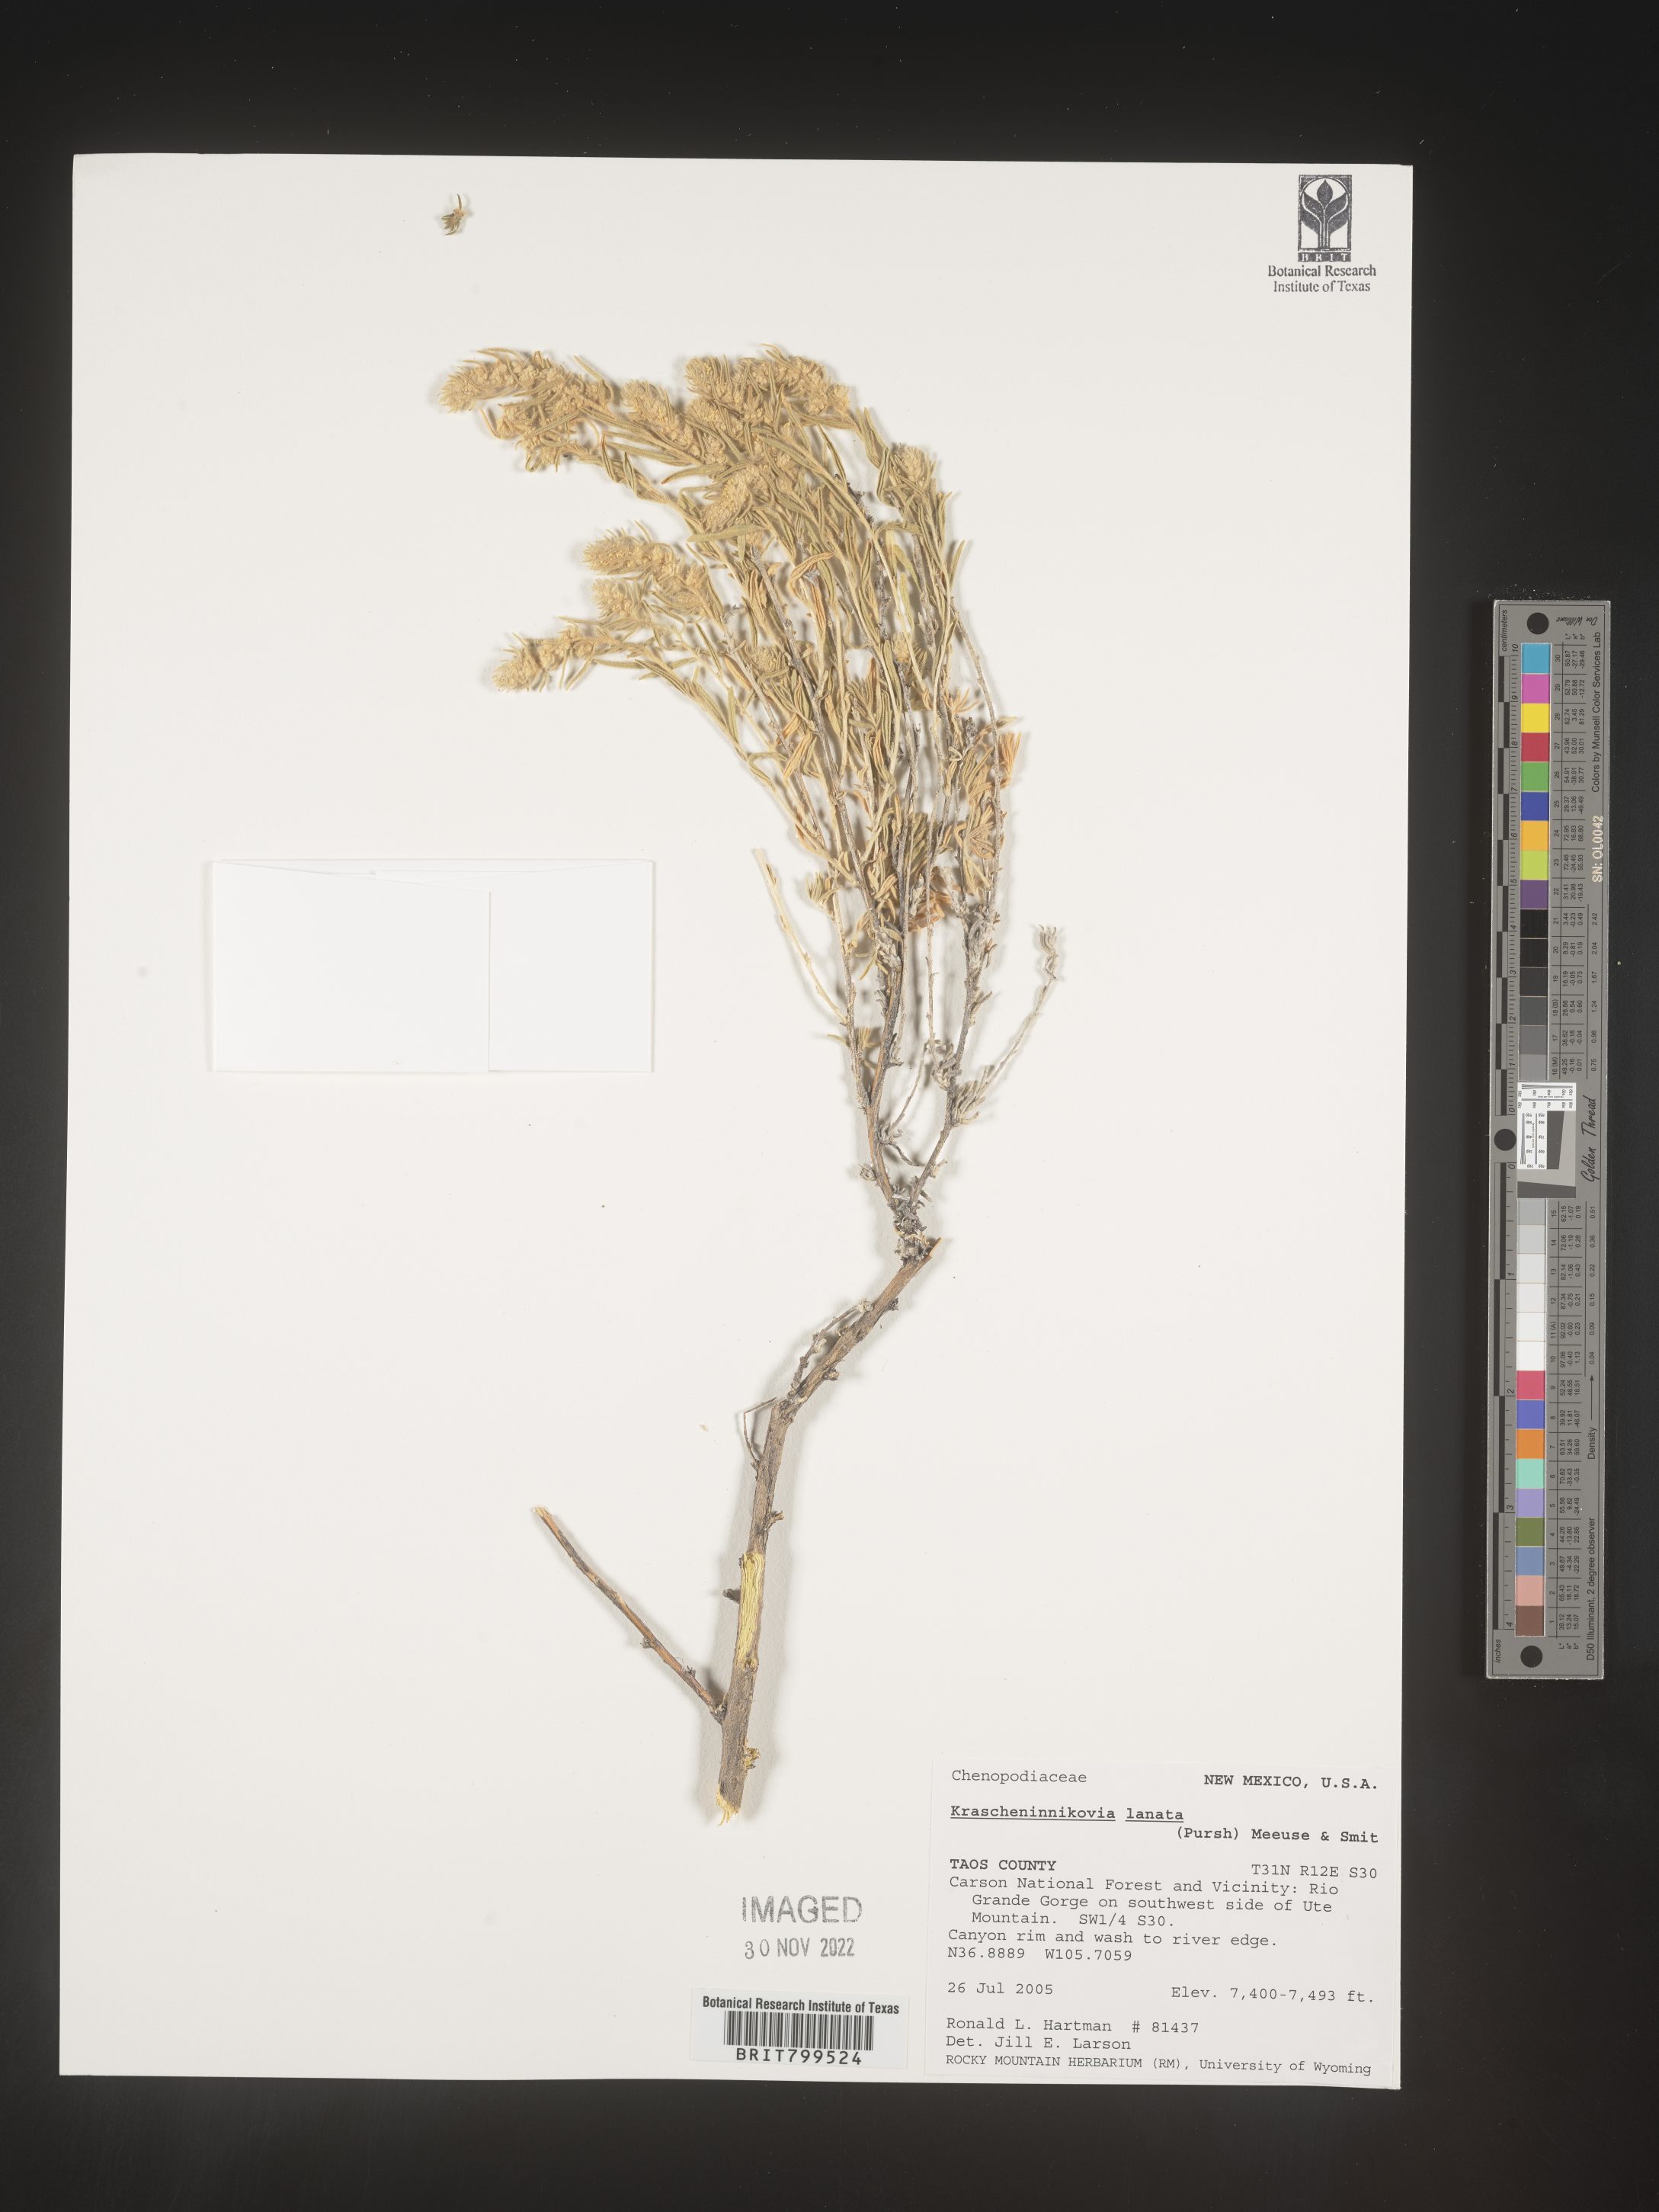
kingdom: Plantae
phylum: Tracheophyta
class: Magnoliopsida
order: Caryophyllales
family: Amaranthaceae
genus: Krascheninnikovia
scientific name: Krascheninnikovia
